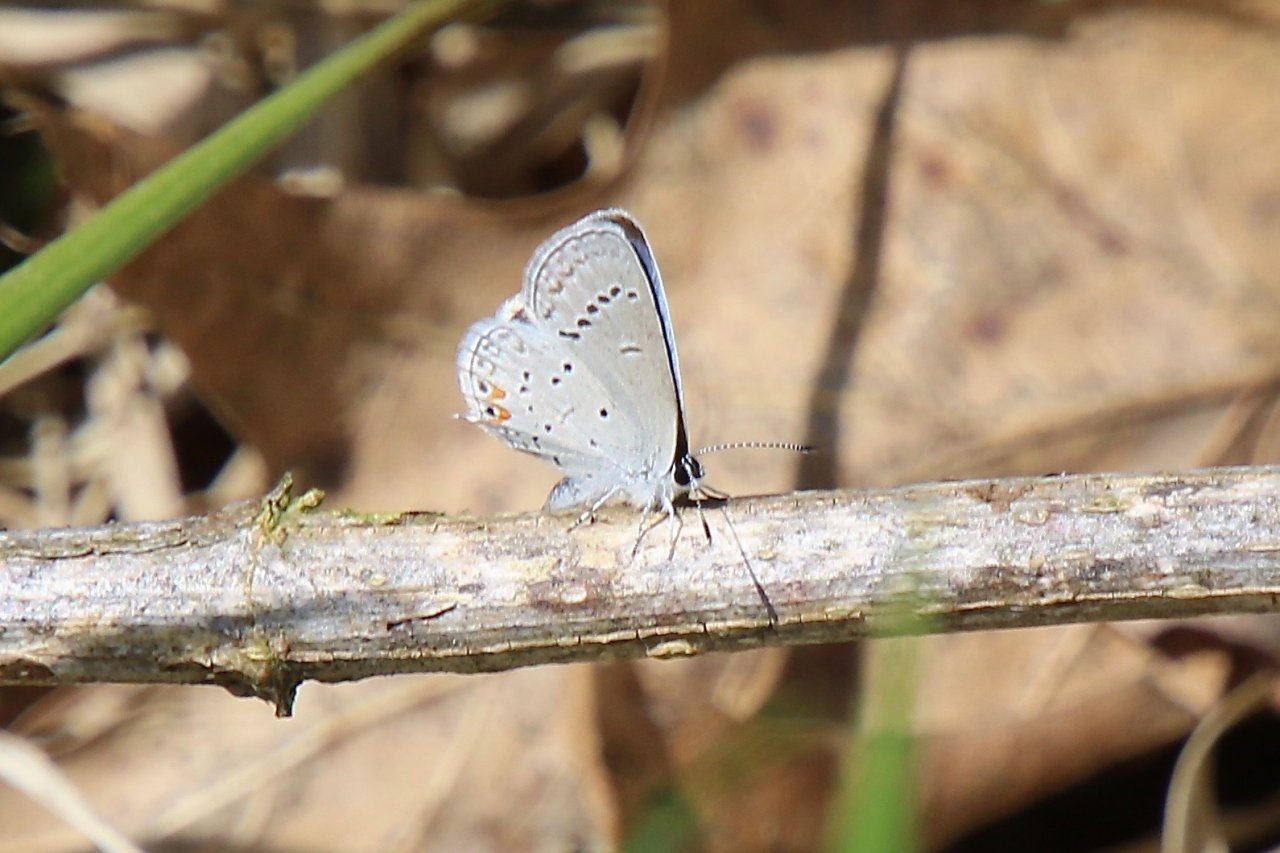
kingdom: Animalia
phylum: Arthropoda
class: Insecta
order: Lepidoptera
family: Lycaenidae
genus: Elkalyce
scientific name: Elkalyce comyntas
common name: Eastern Tailed-Blue
